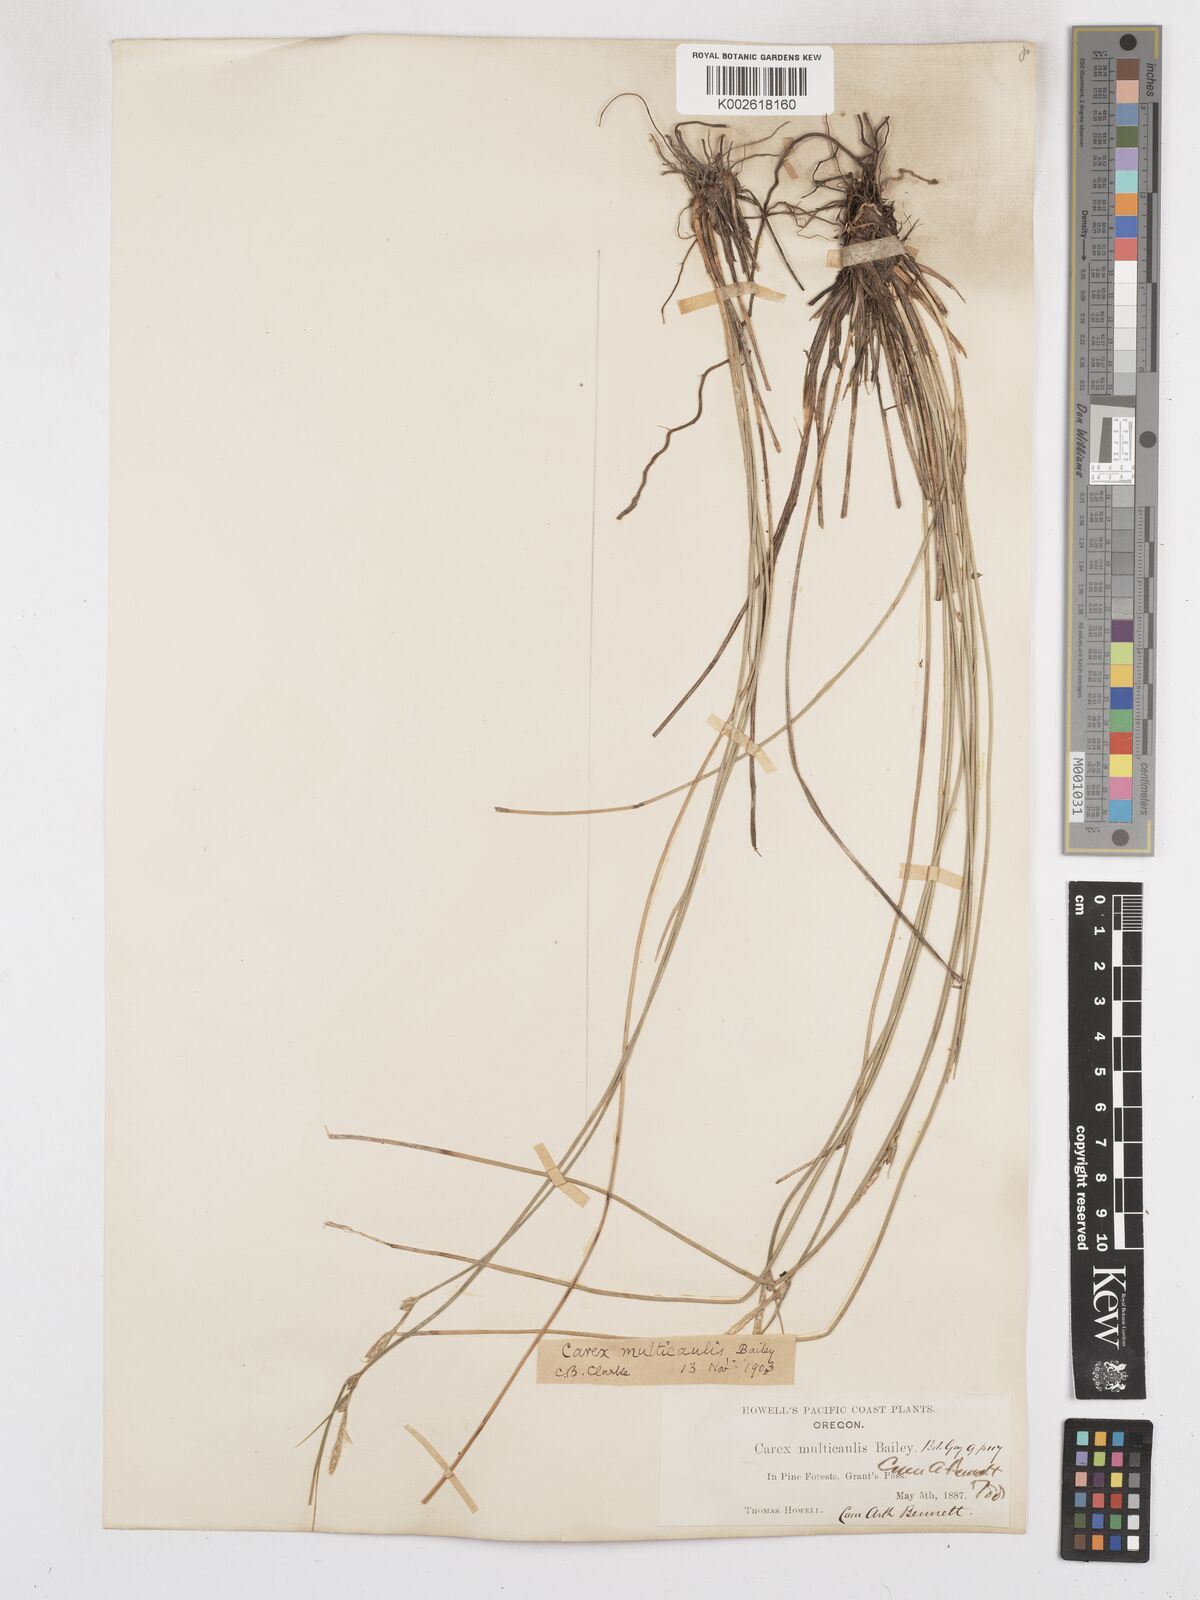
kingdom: Plantae
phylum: Tracheophyta
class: Liliopsida
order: Poales
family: Cyperaceae
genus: Carex
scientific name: Carex multicaulis
